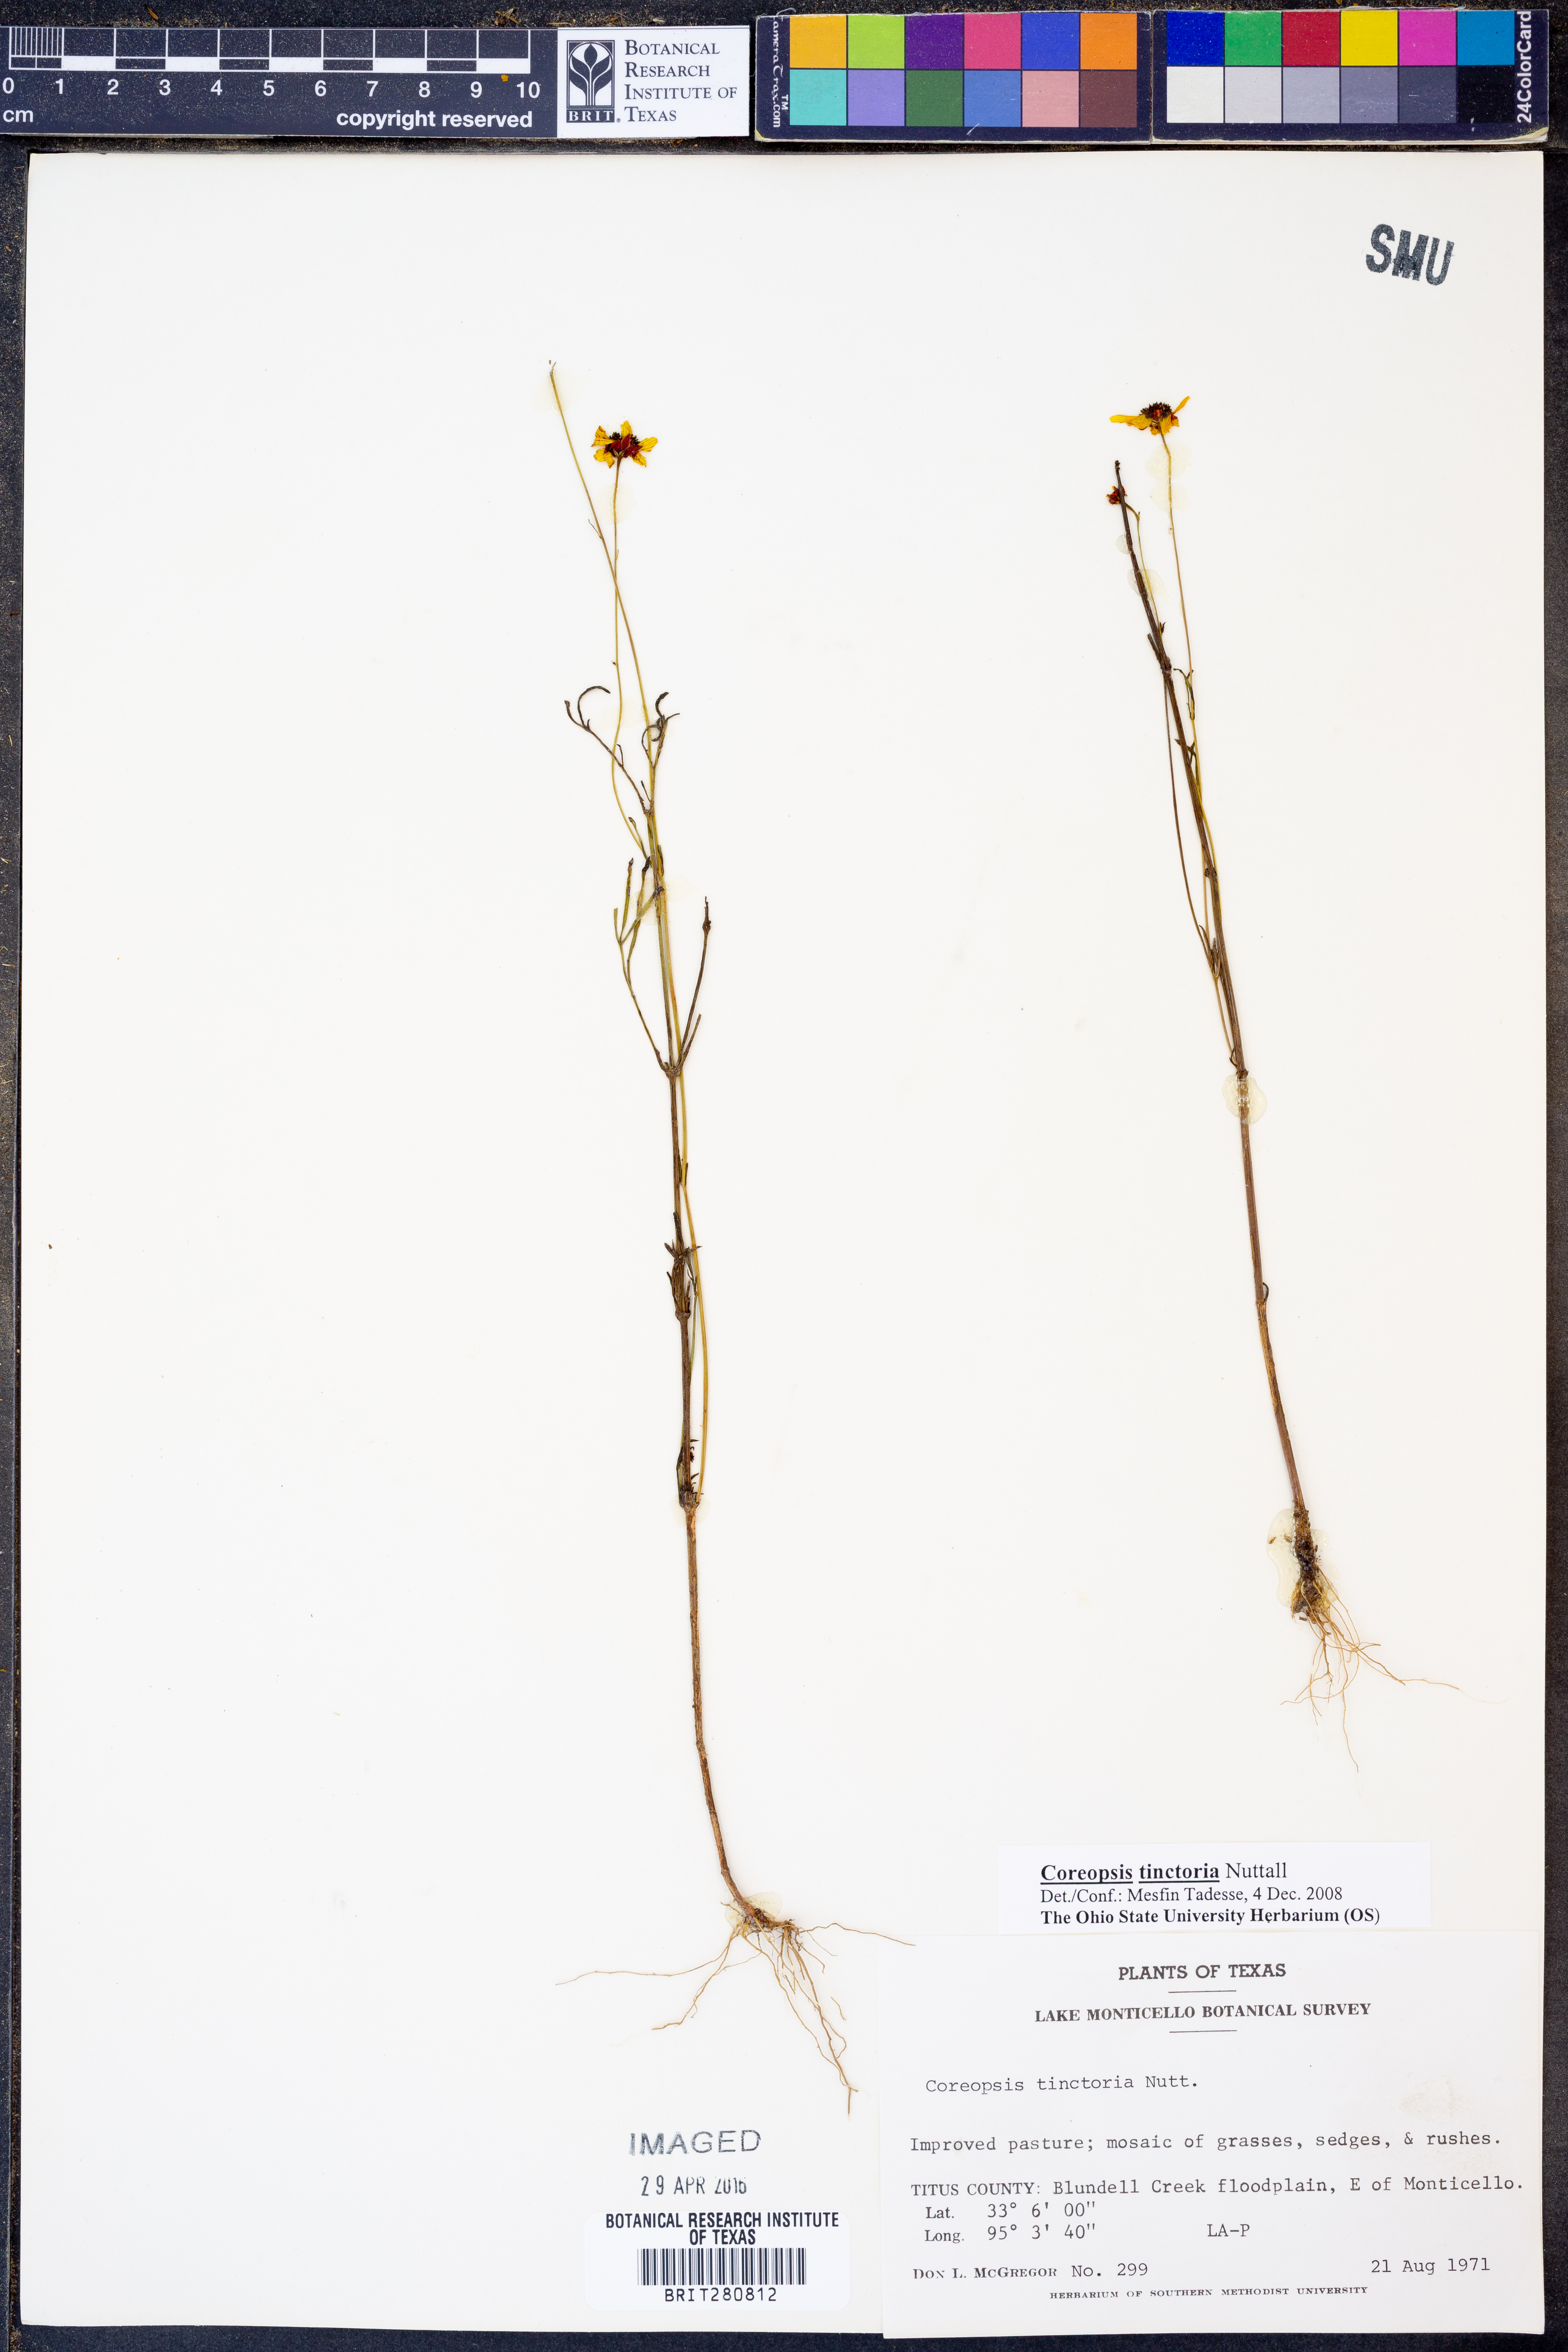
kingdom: Plantae
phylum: Tracheophyta
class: Magnoliopsida
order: Asterales
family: Asteraceae
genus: Coreopsis
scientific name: Coreopsis tinctoria
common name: Garden tickseed
